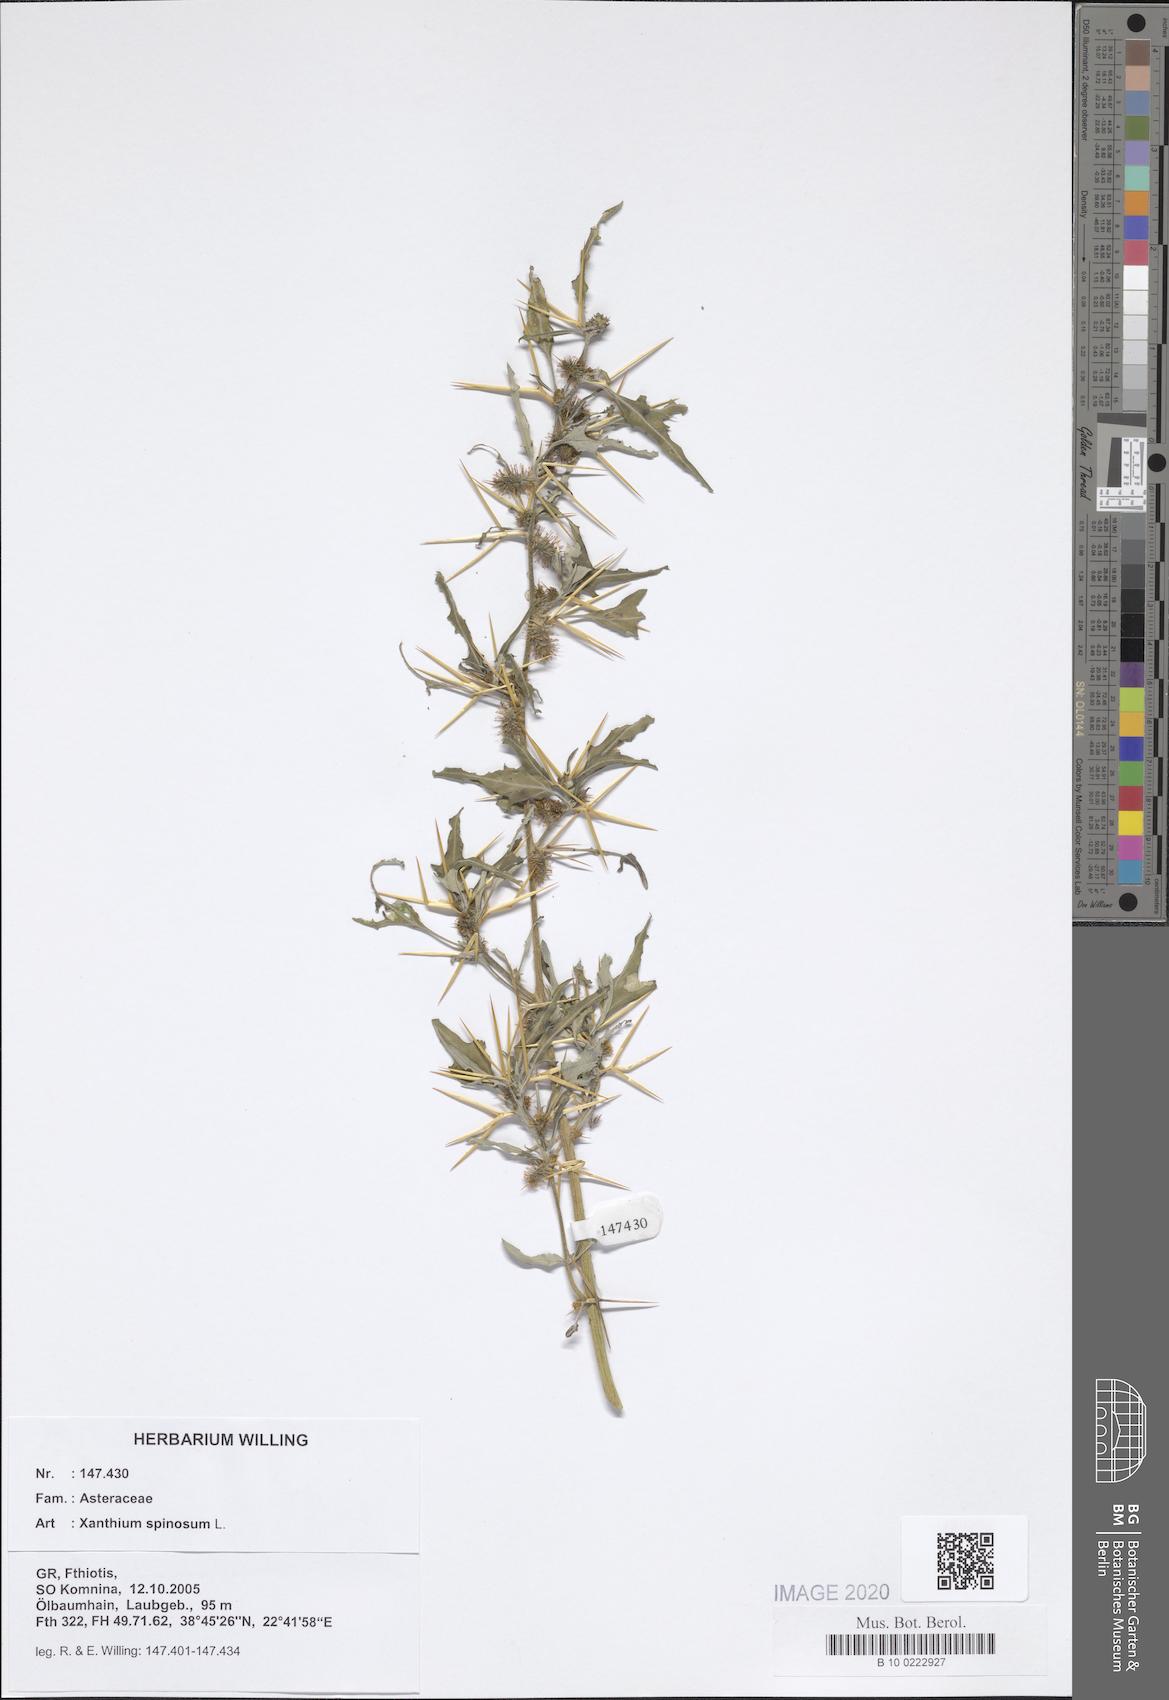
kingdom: Plantae
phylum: Tracheophyta
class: Magnoliopsida
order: Asterales
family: Asteraceae
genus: Xanthium
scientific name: Xanthium spinosum
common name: Spiny cocklebur
